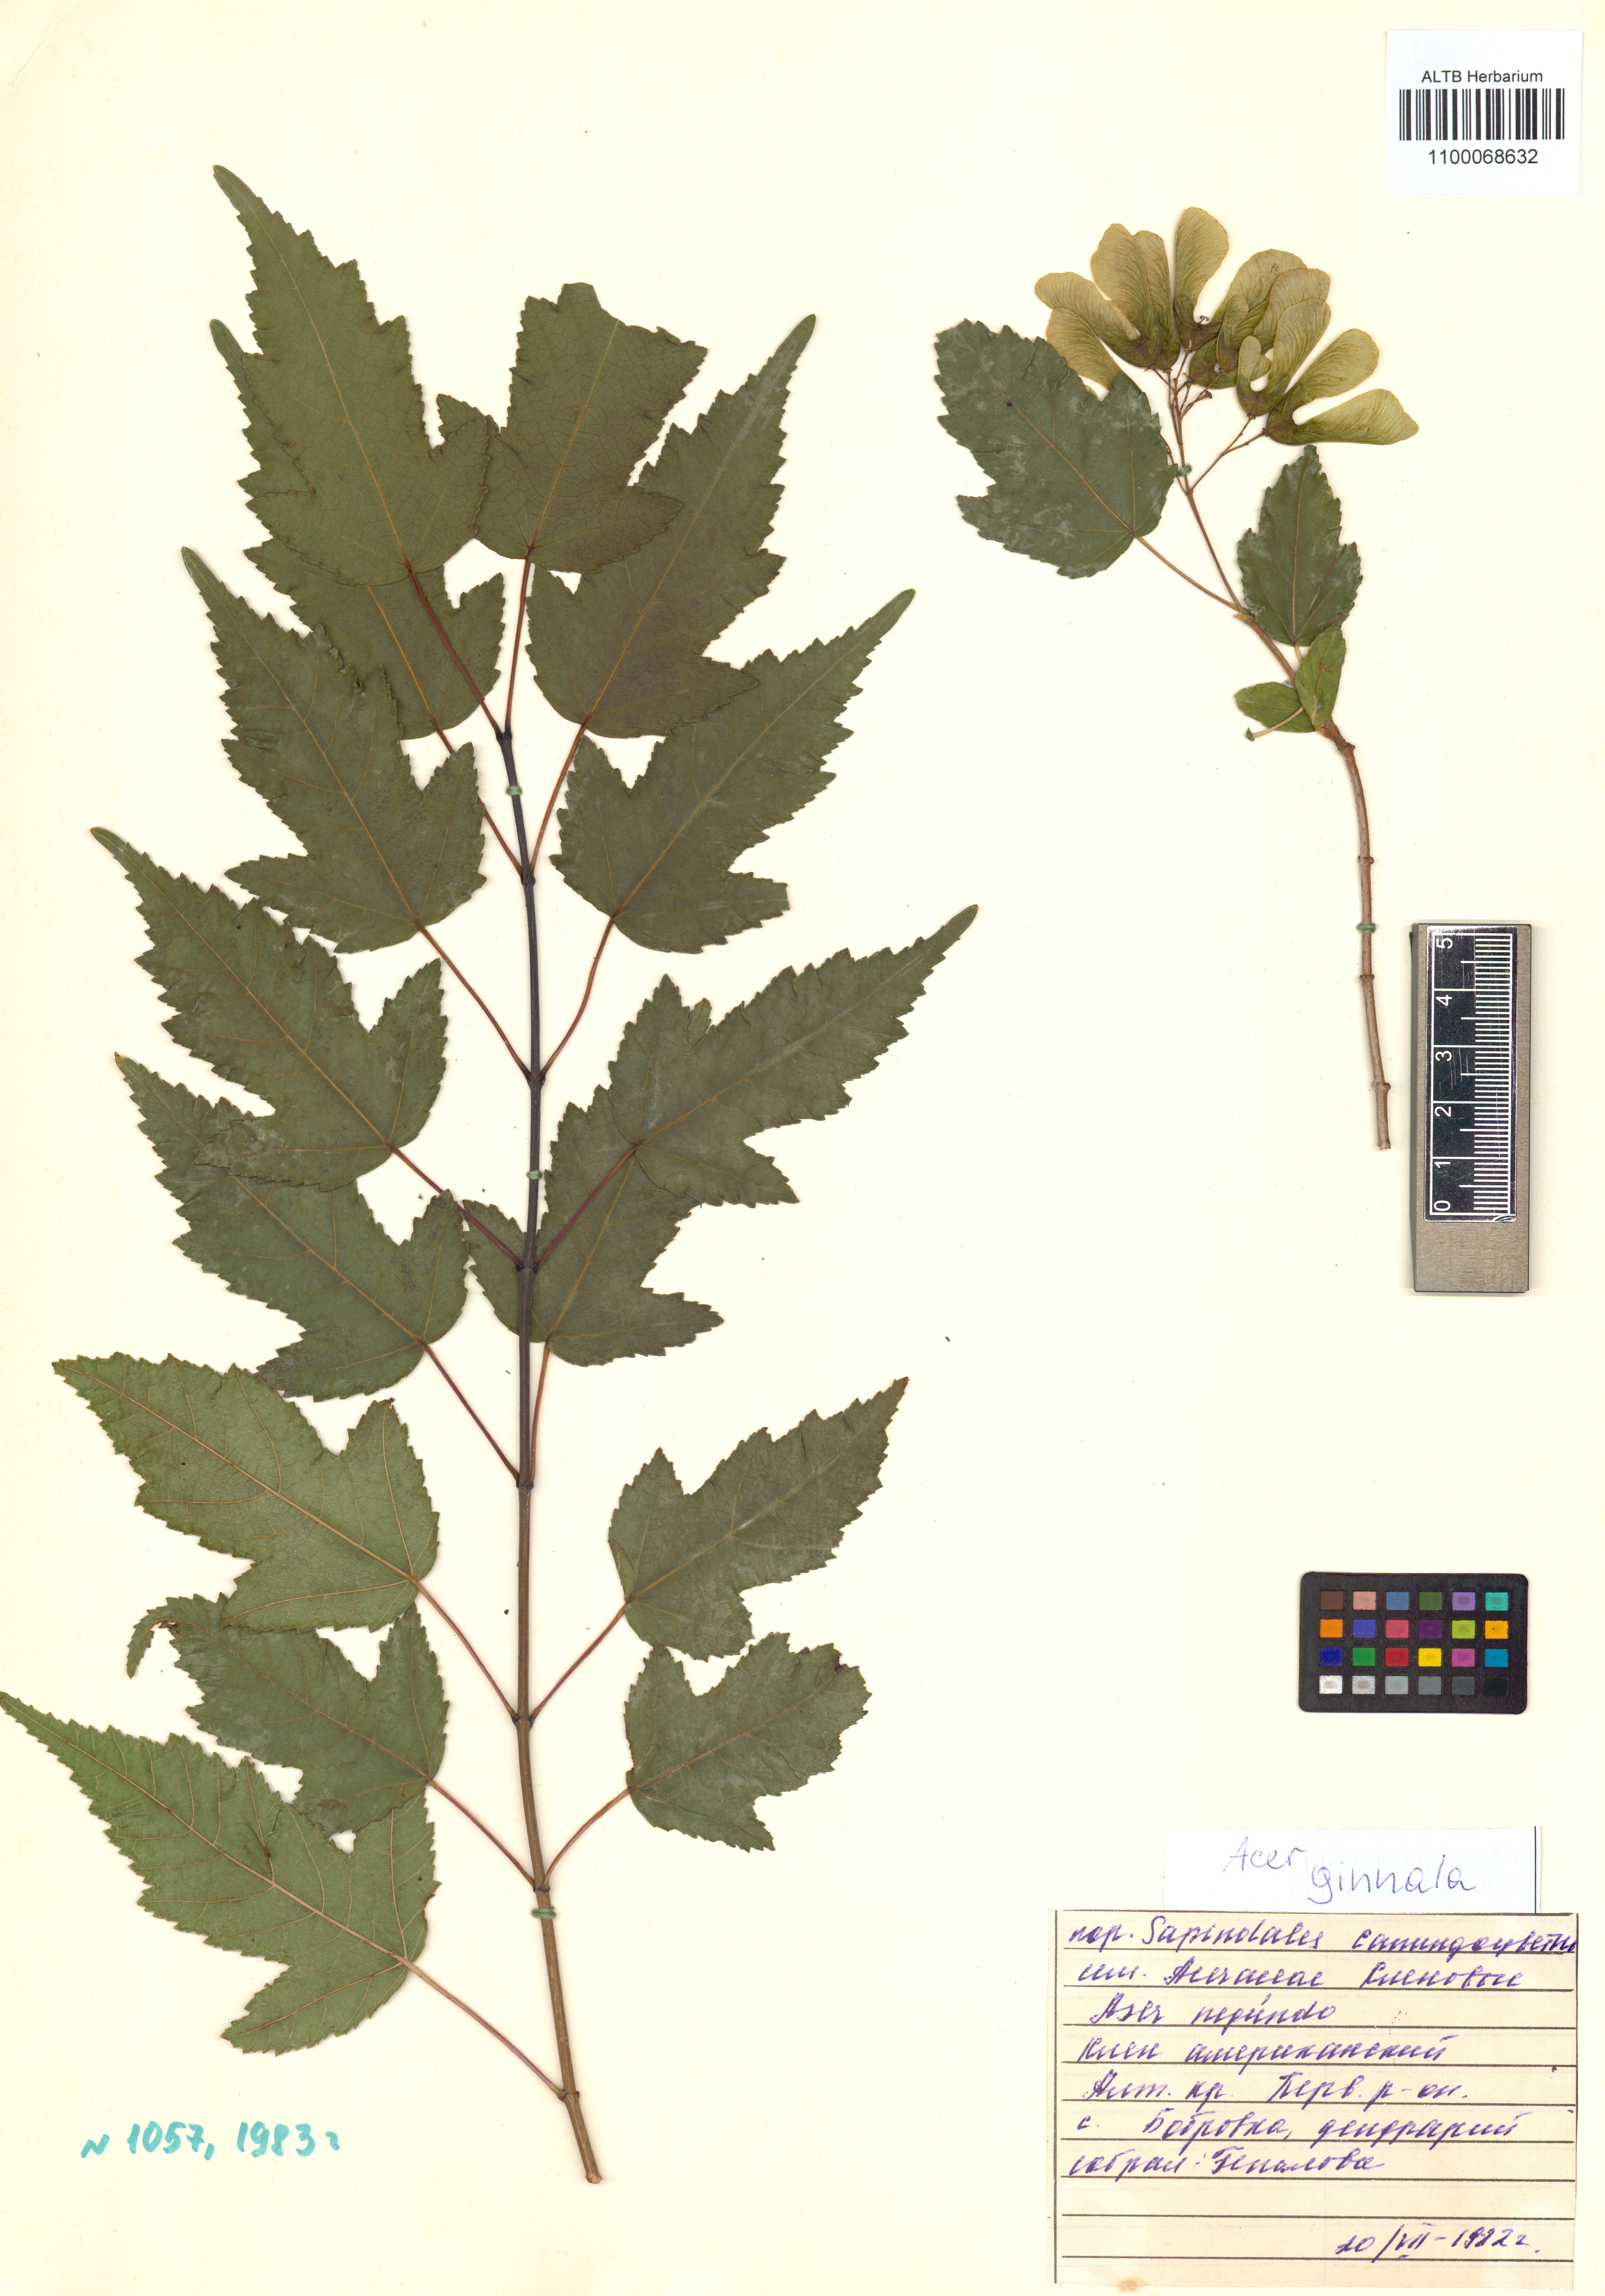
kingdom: Plantae
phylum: Tracheophyta
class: Magnoliopsida
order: Sapindales
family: Sapindaceae
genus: Acer
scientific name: Acer tataricum
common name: Tartar maple
